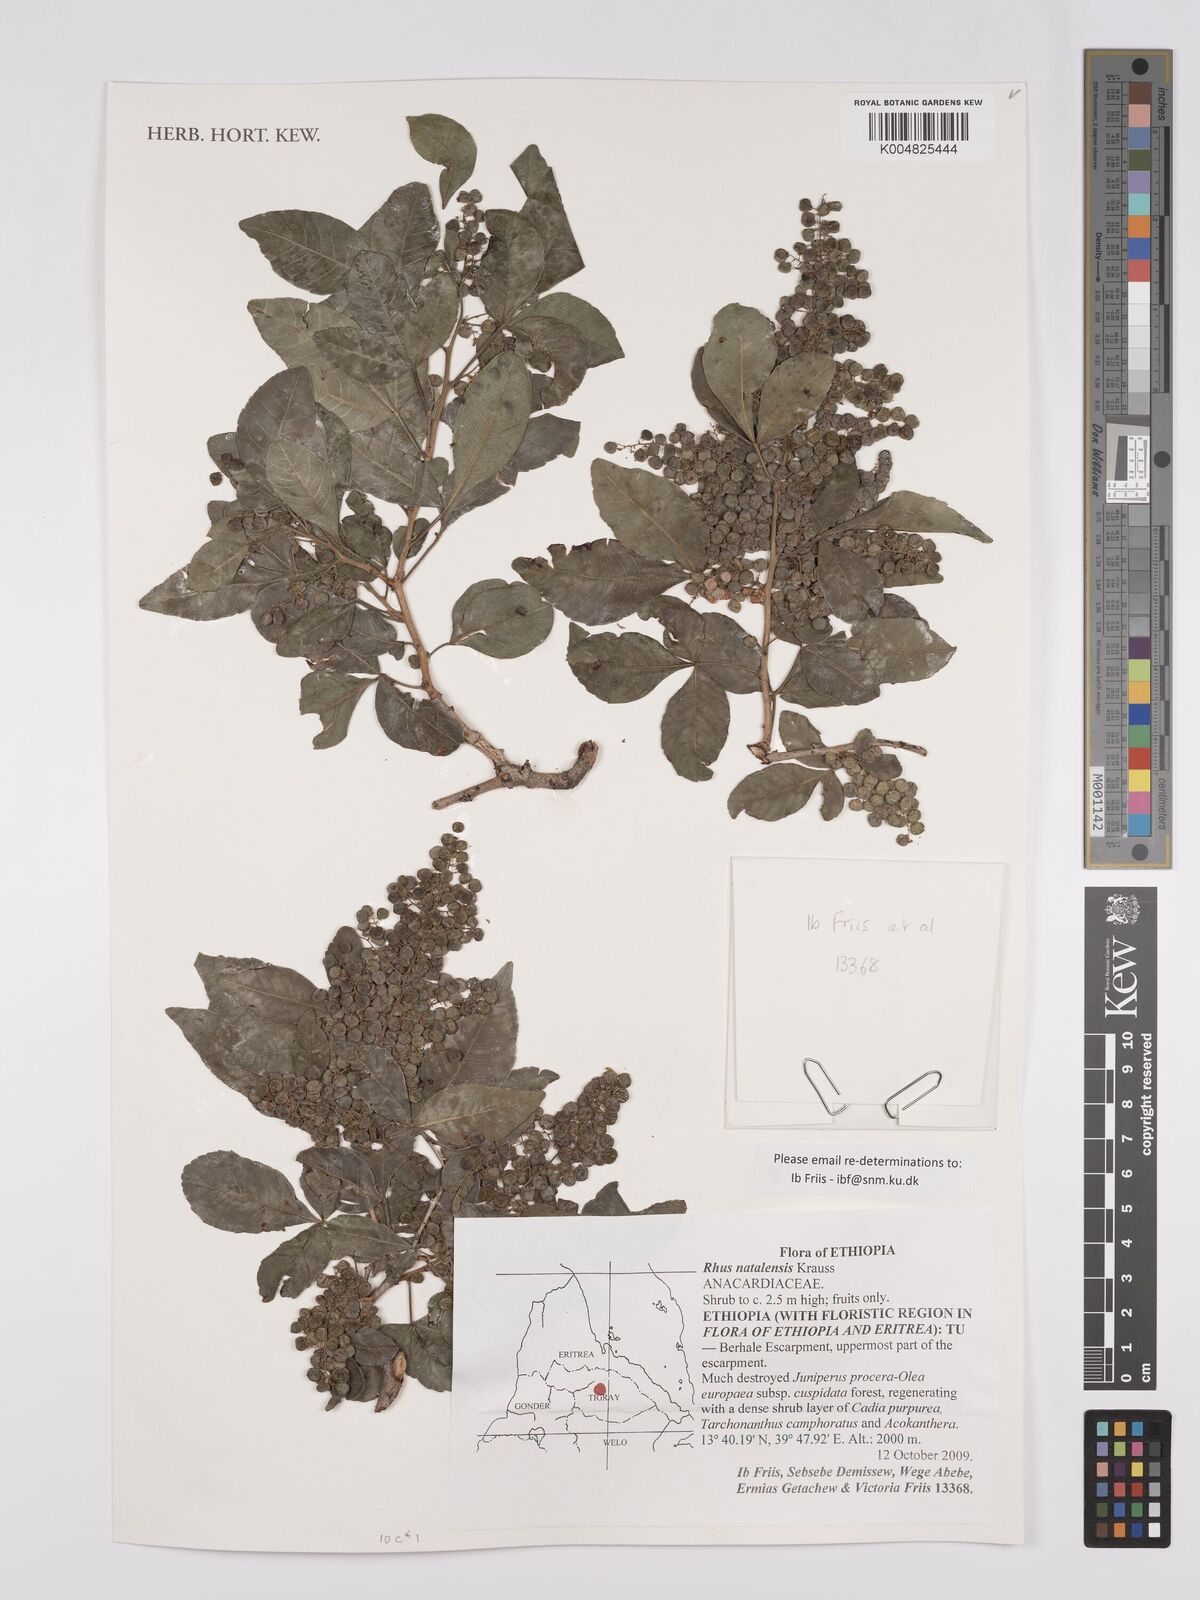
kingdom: Plantae
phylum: Tracheophyta
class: Magnoliopsida
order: Sapindales
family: Anacardiaceae
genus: Searsia
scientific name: Searsia natalensis
